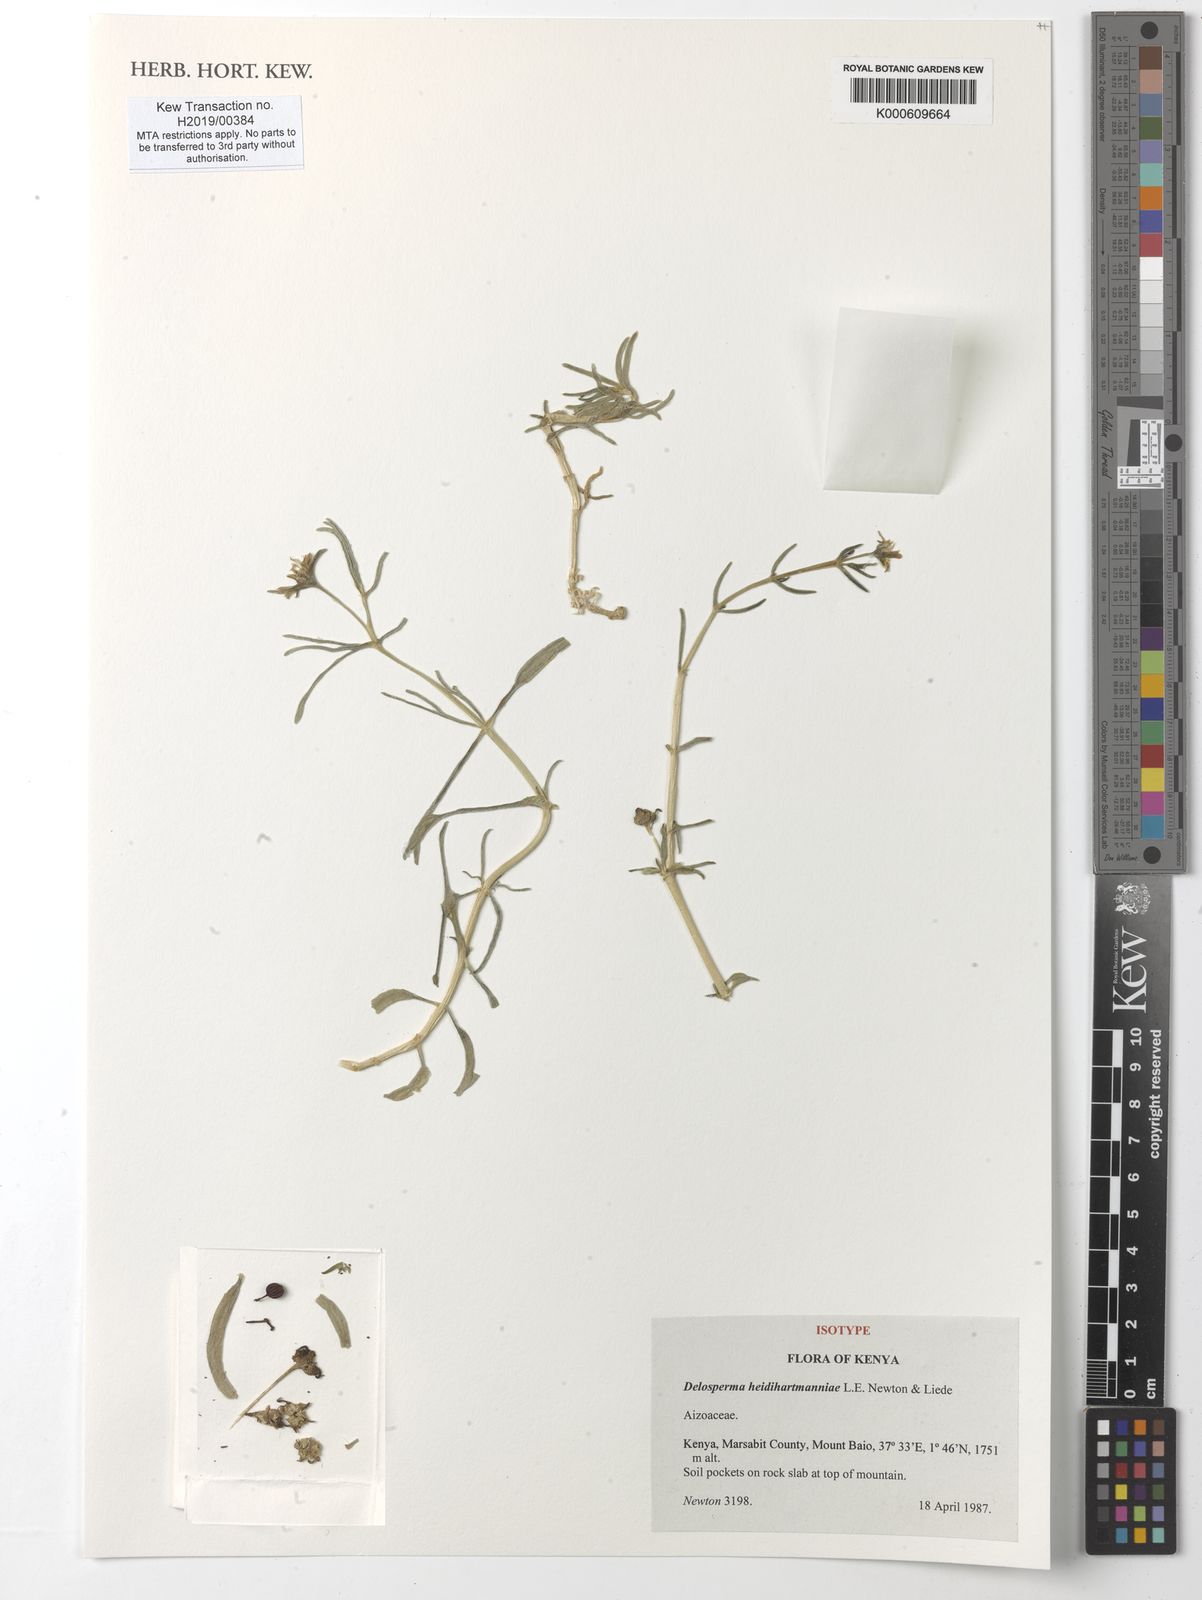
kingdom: Plantae
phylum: Tracheophyta
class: Magnoliopsida
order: Caryophyllales
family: Aizoaceae
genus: Delosperma
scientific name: Delosperma
